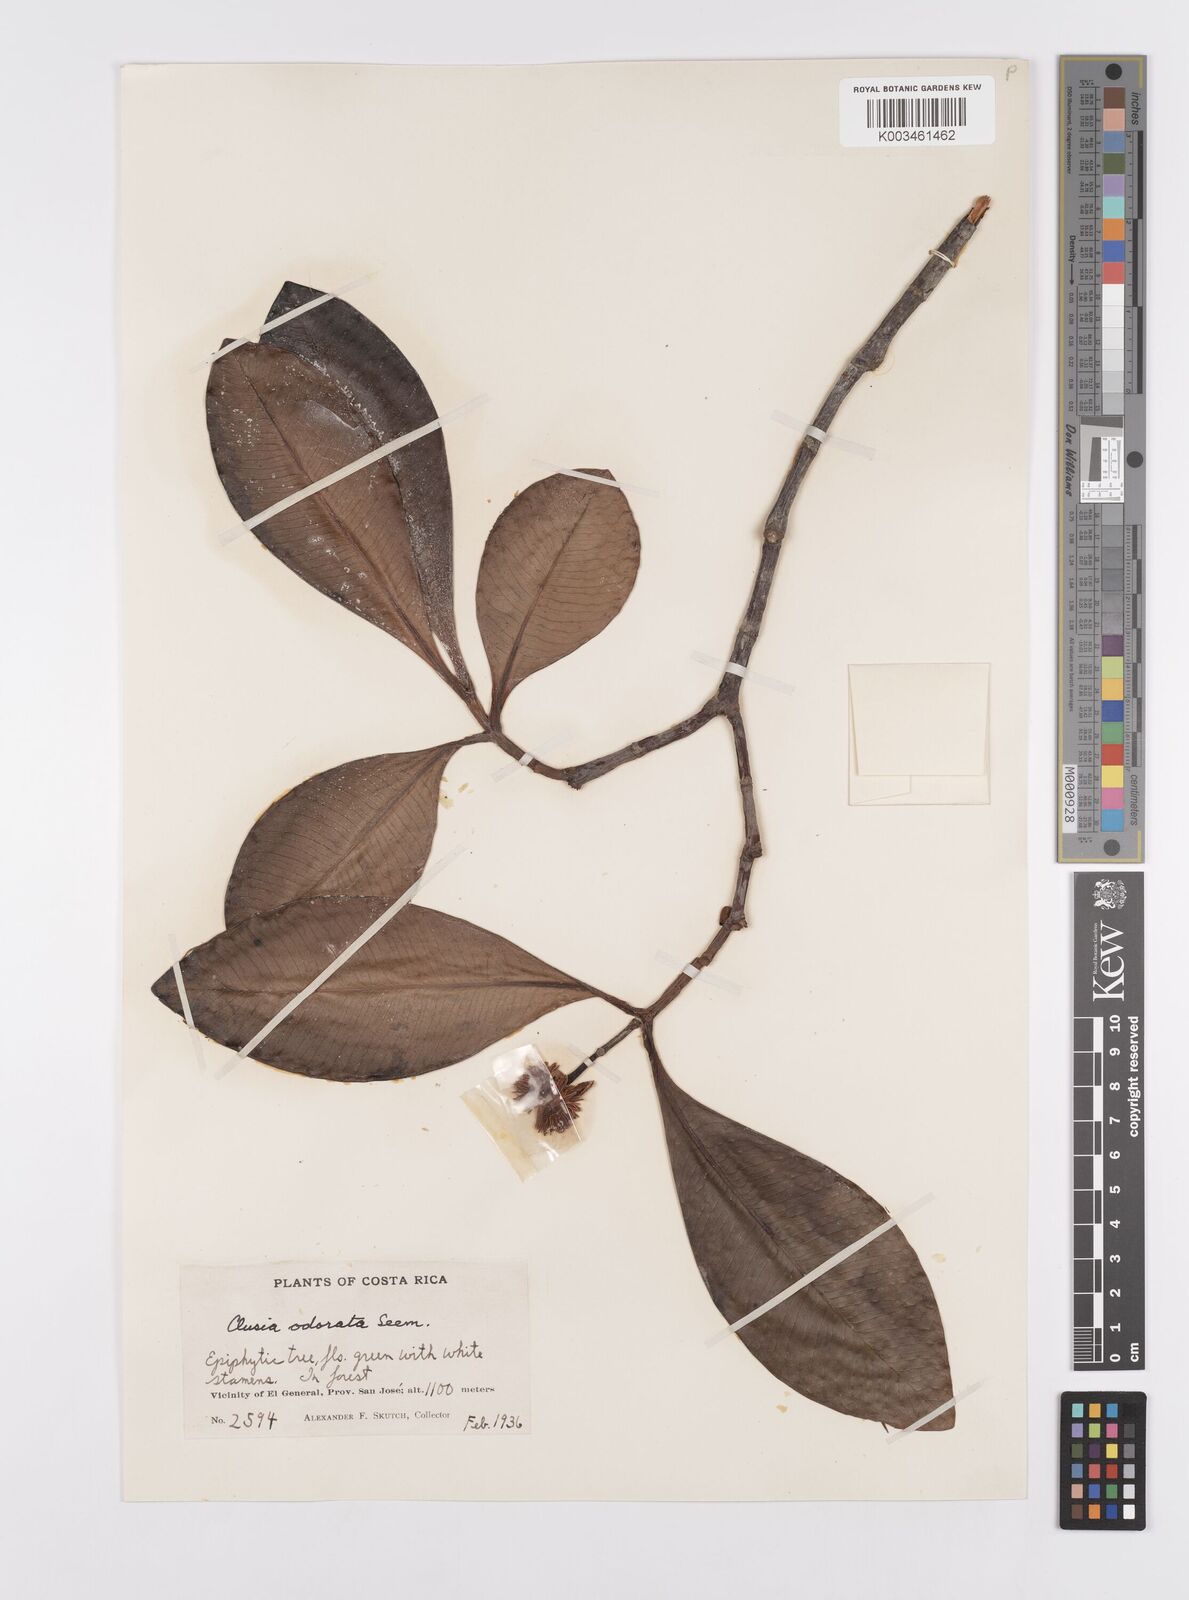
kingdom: Plantae
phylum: Tracheophyta
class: Magnoliopsida
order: Malpighiales
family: Clusiaceae
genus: Clusia
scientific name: Clusia minor
